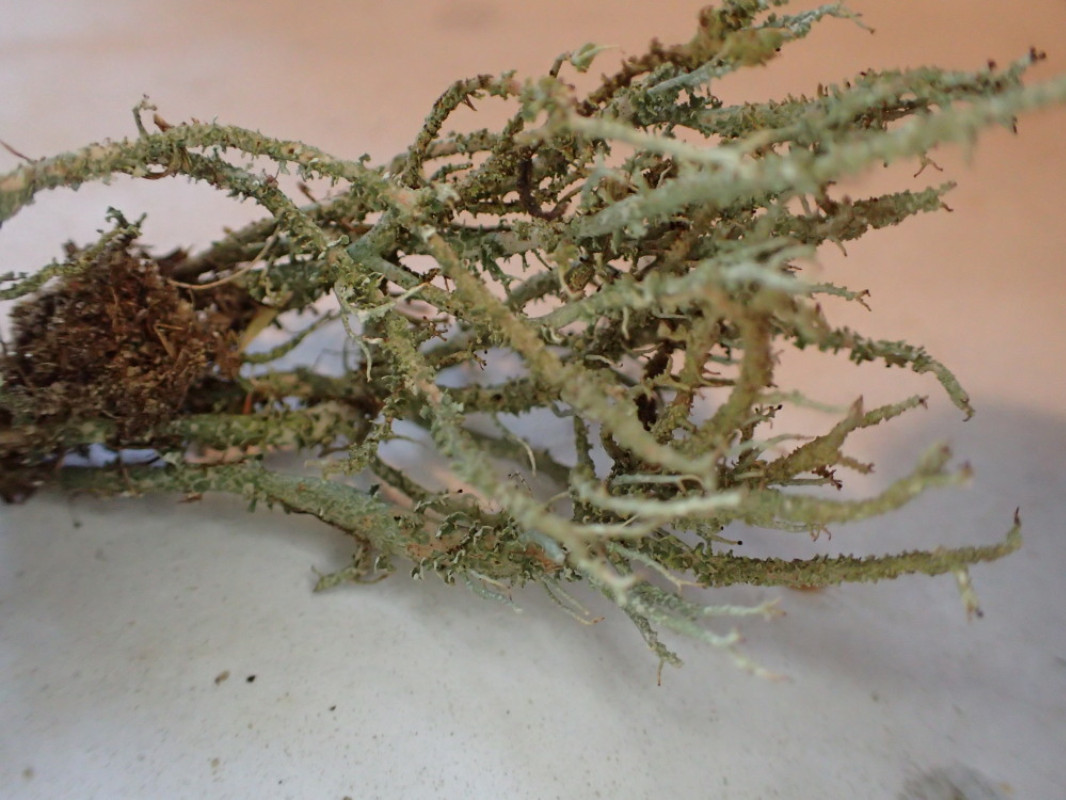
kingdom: Fungi
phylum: Ascomycota
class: Lecanoromycetes
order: Lecanorales
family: Cladoniaceae
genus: Cladonia
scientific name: Cladonia scabriuscula
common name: ru bægerlav
